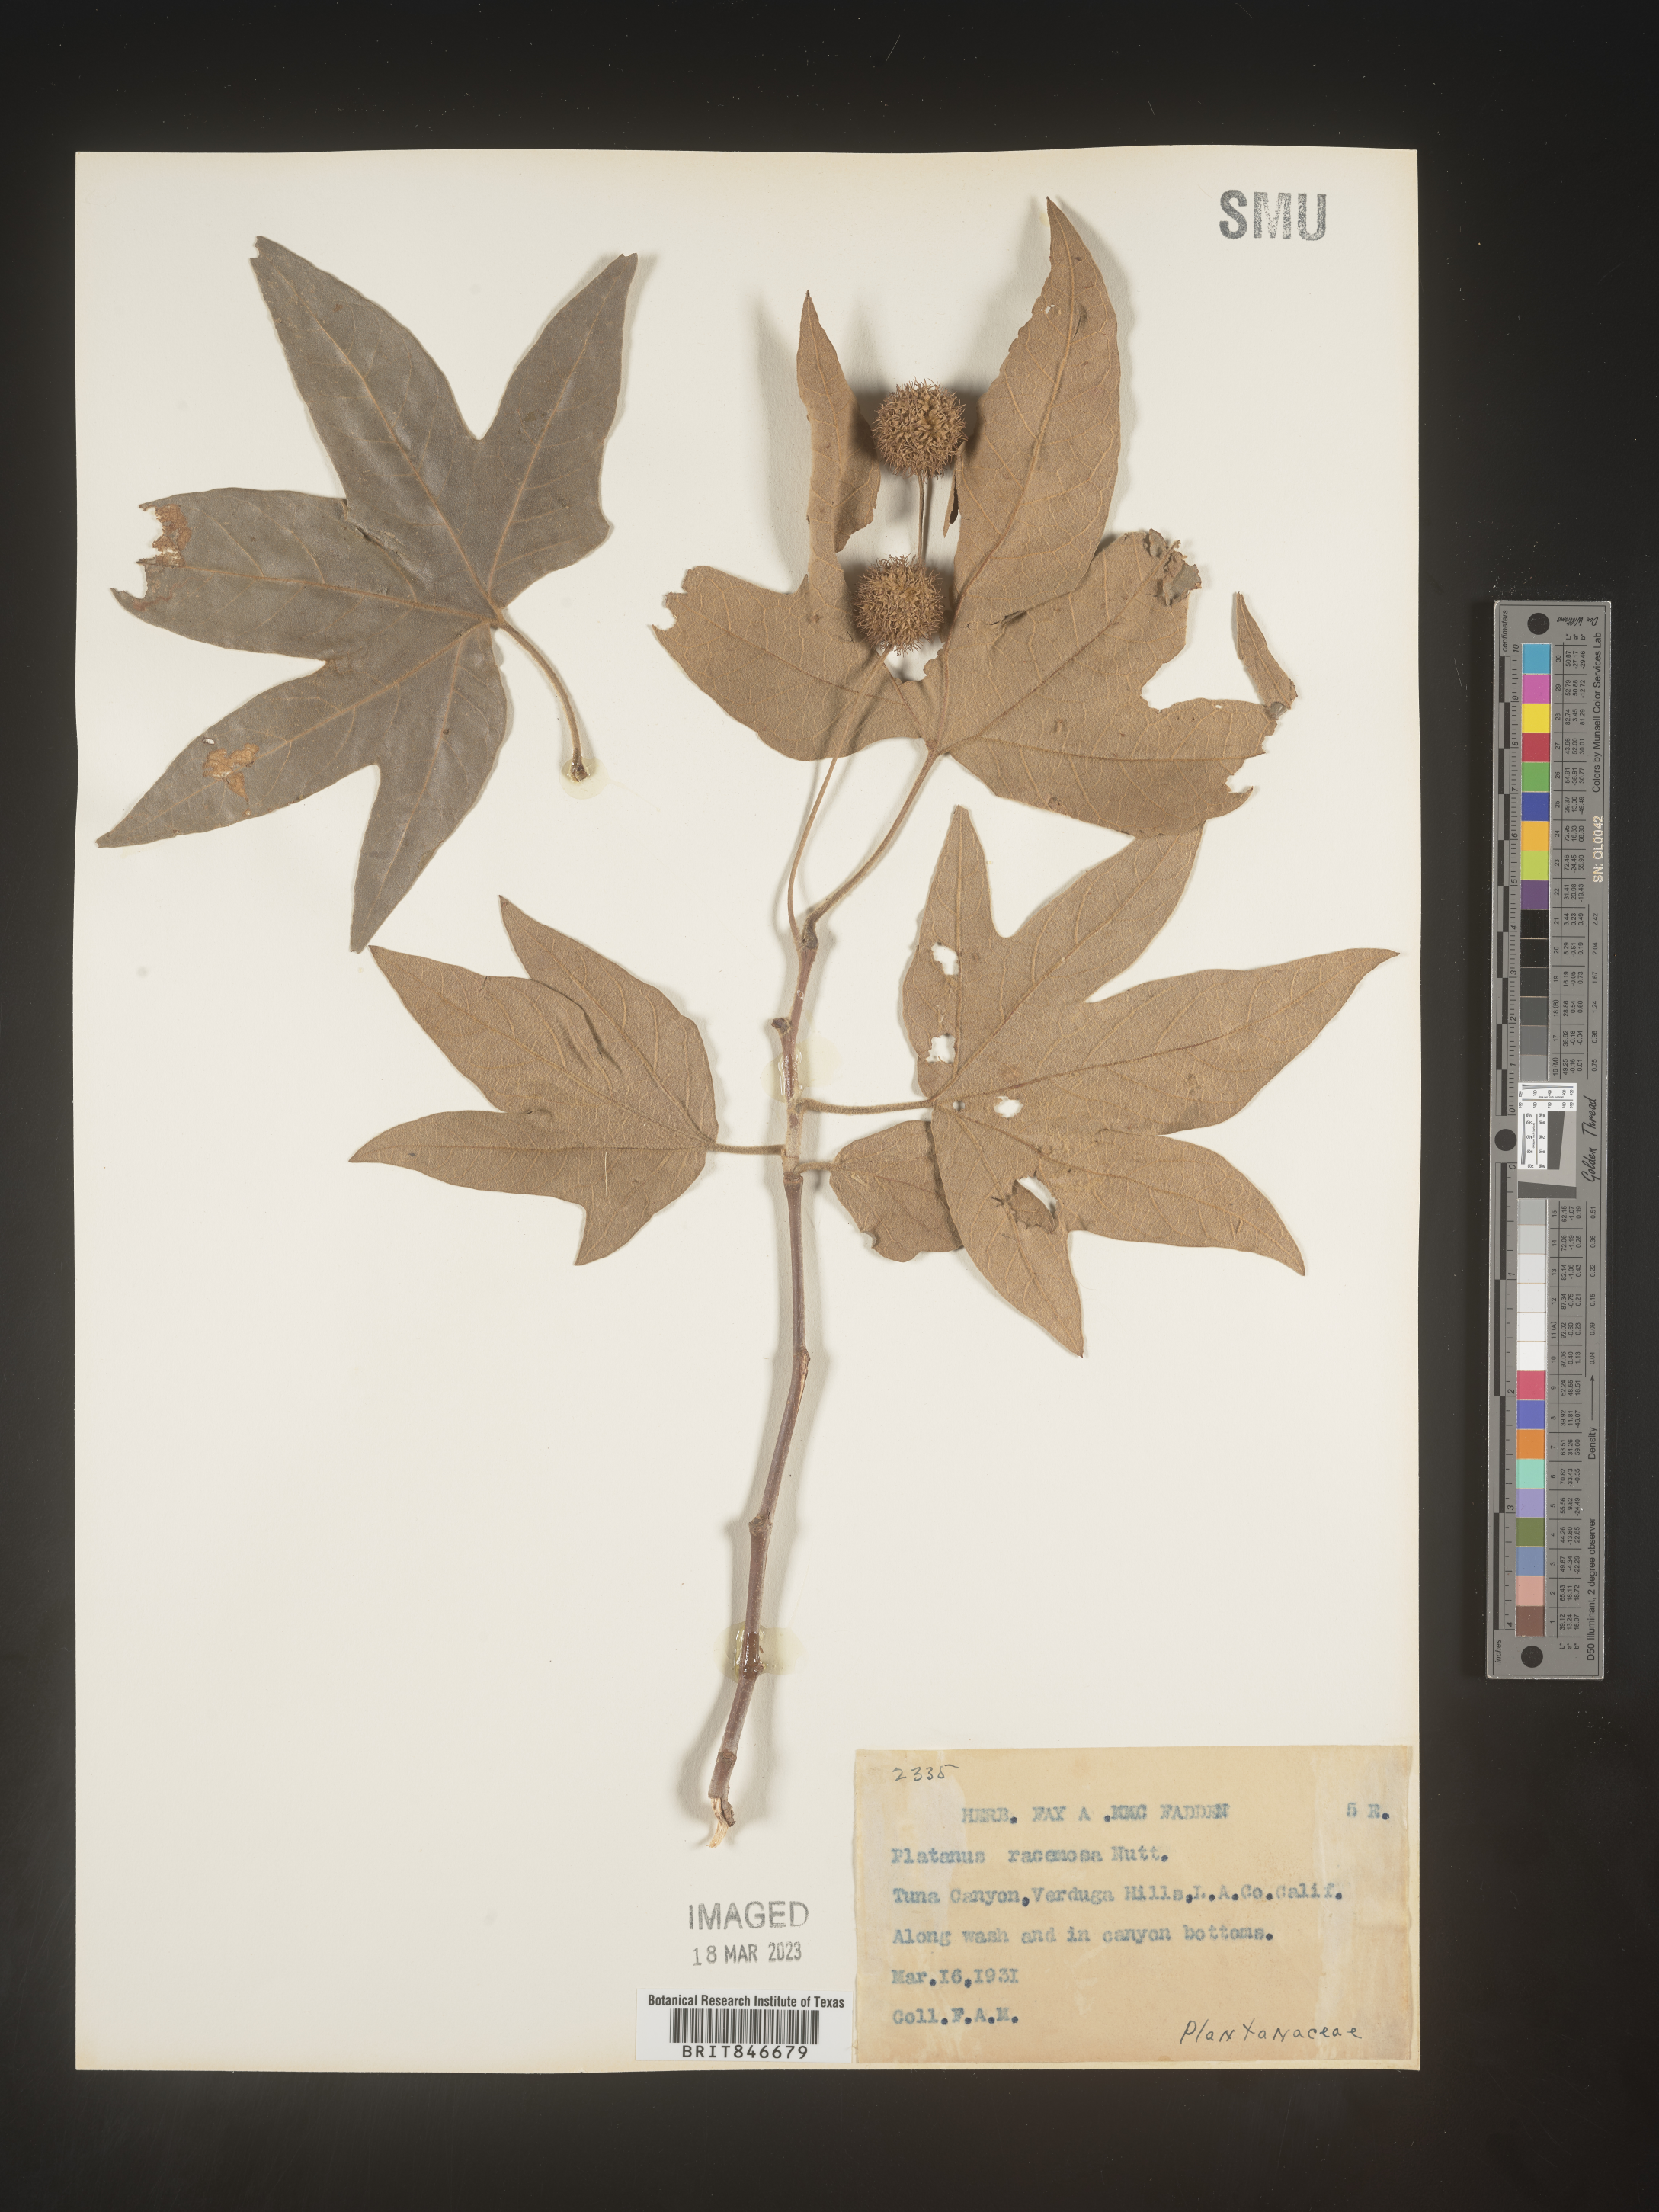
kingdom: Plantae
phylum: Tracheophyta
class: Magnoliopsida
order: Proteales
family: Platanaceae
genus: Platanus
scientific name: Platanus
